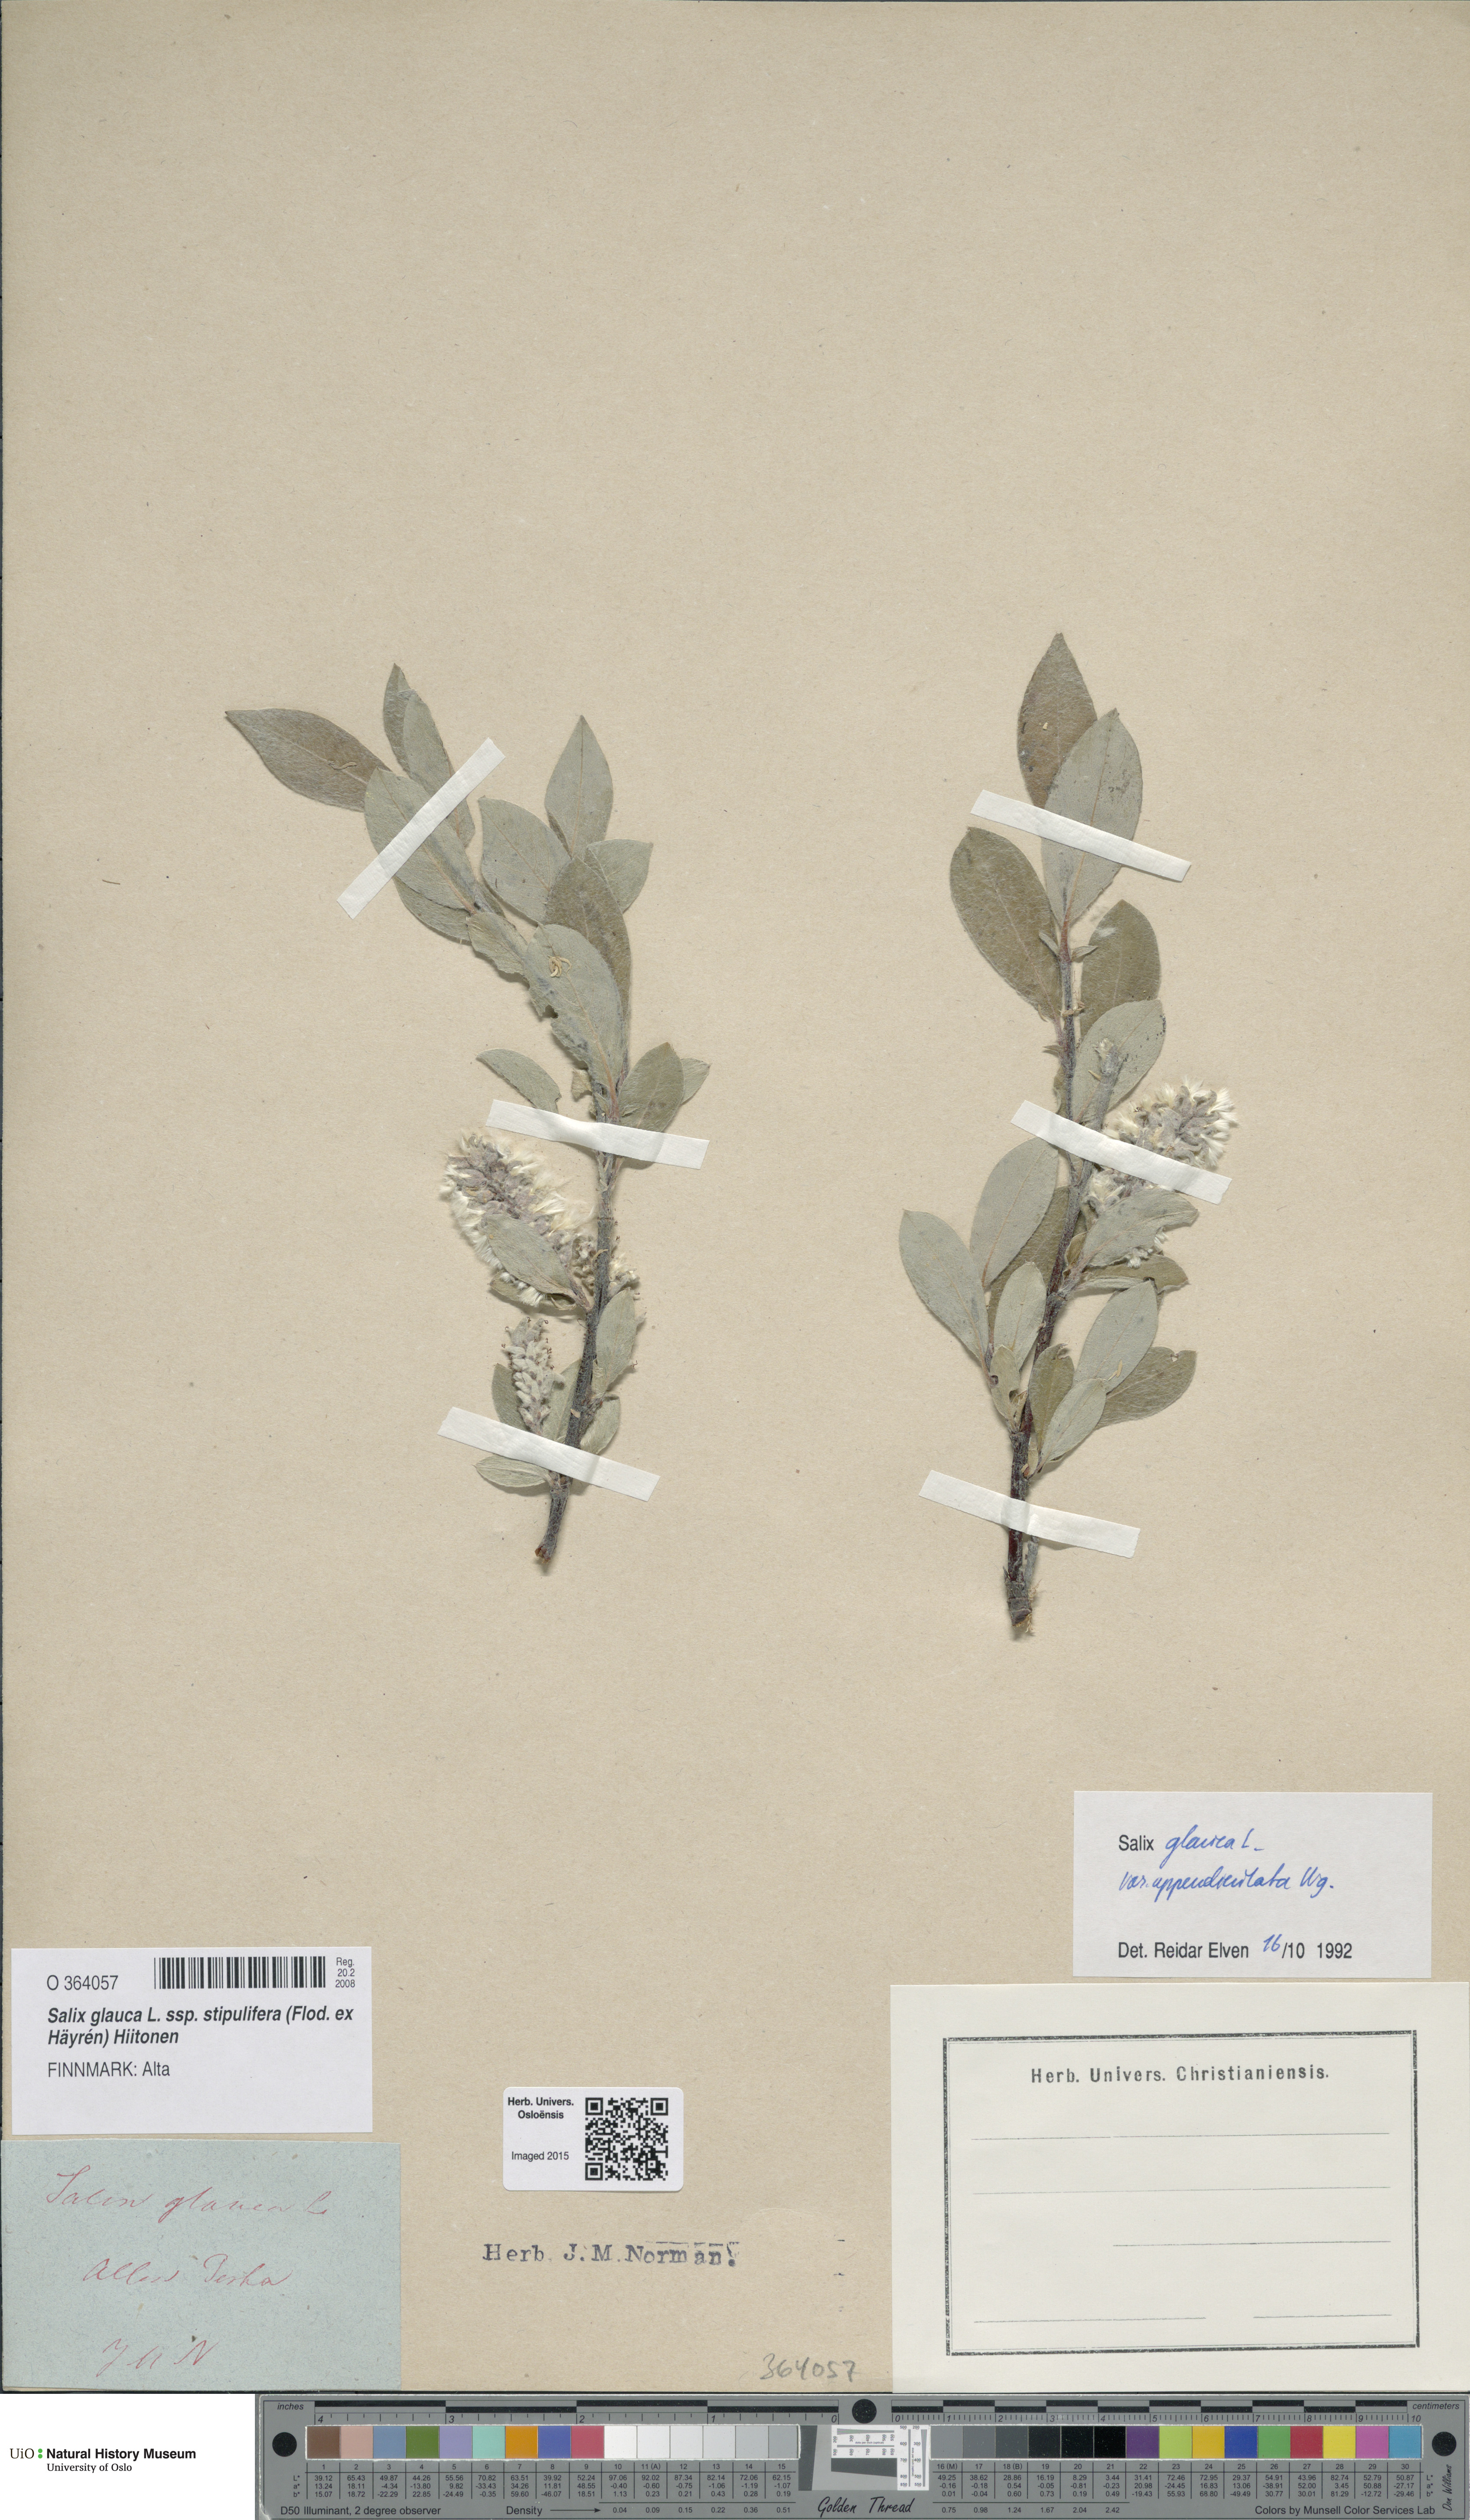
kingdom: Plantae
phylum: Tracheophyta
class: Magnoliopsida
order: Malpighiales
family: Salicaceae
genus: Salix
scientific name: Salix glauca
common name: Glaucous willow
